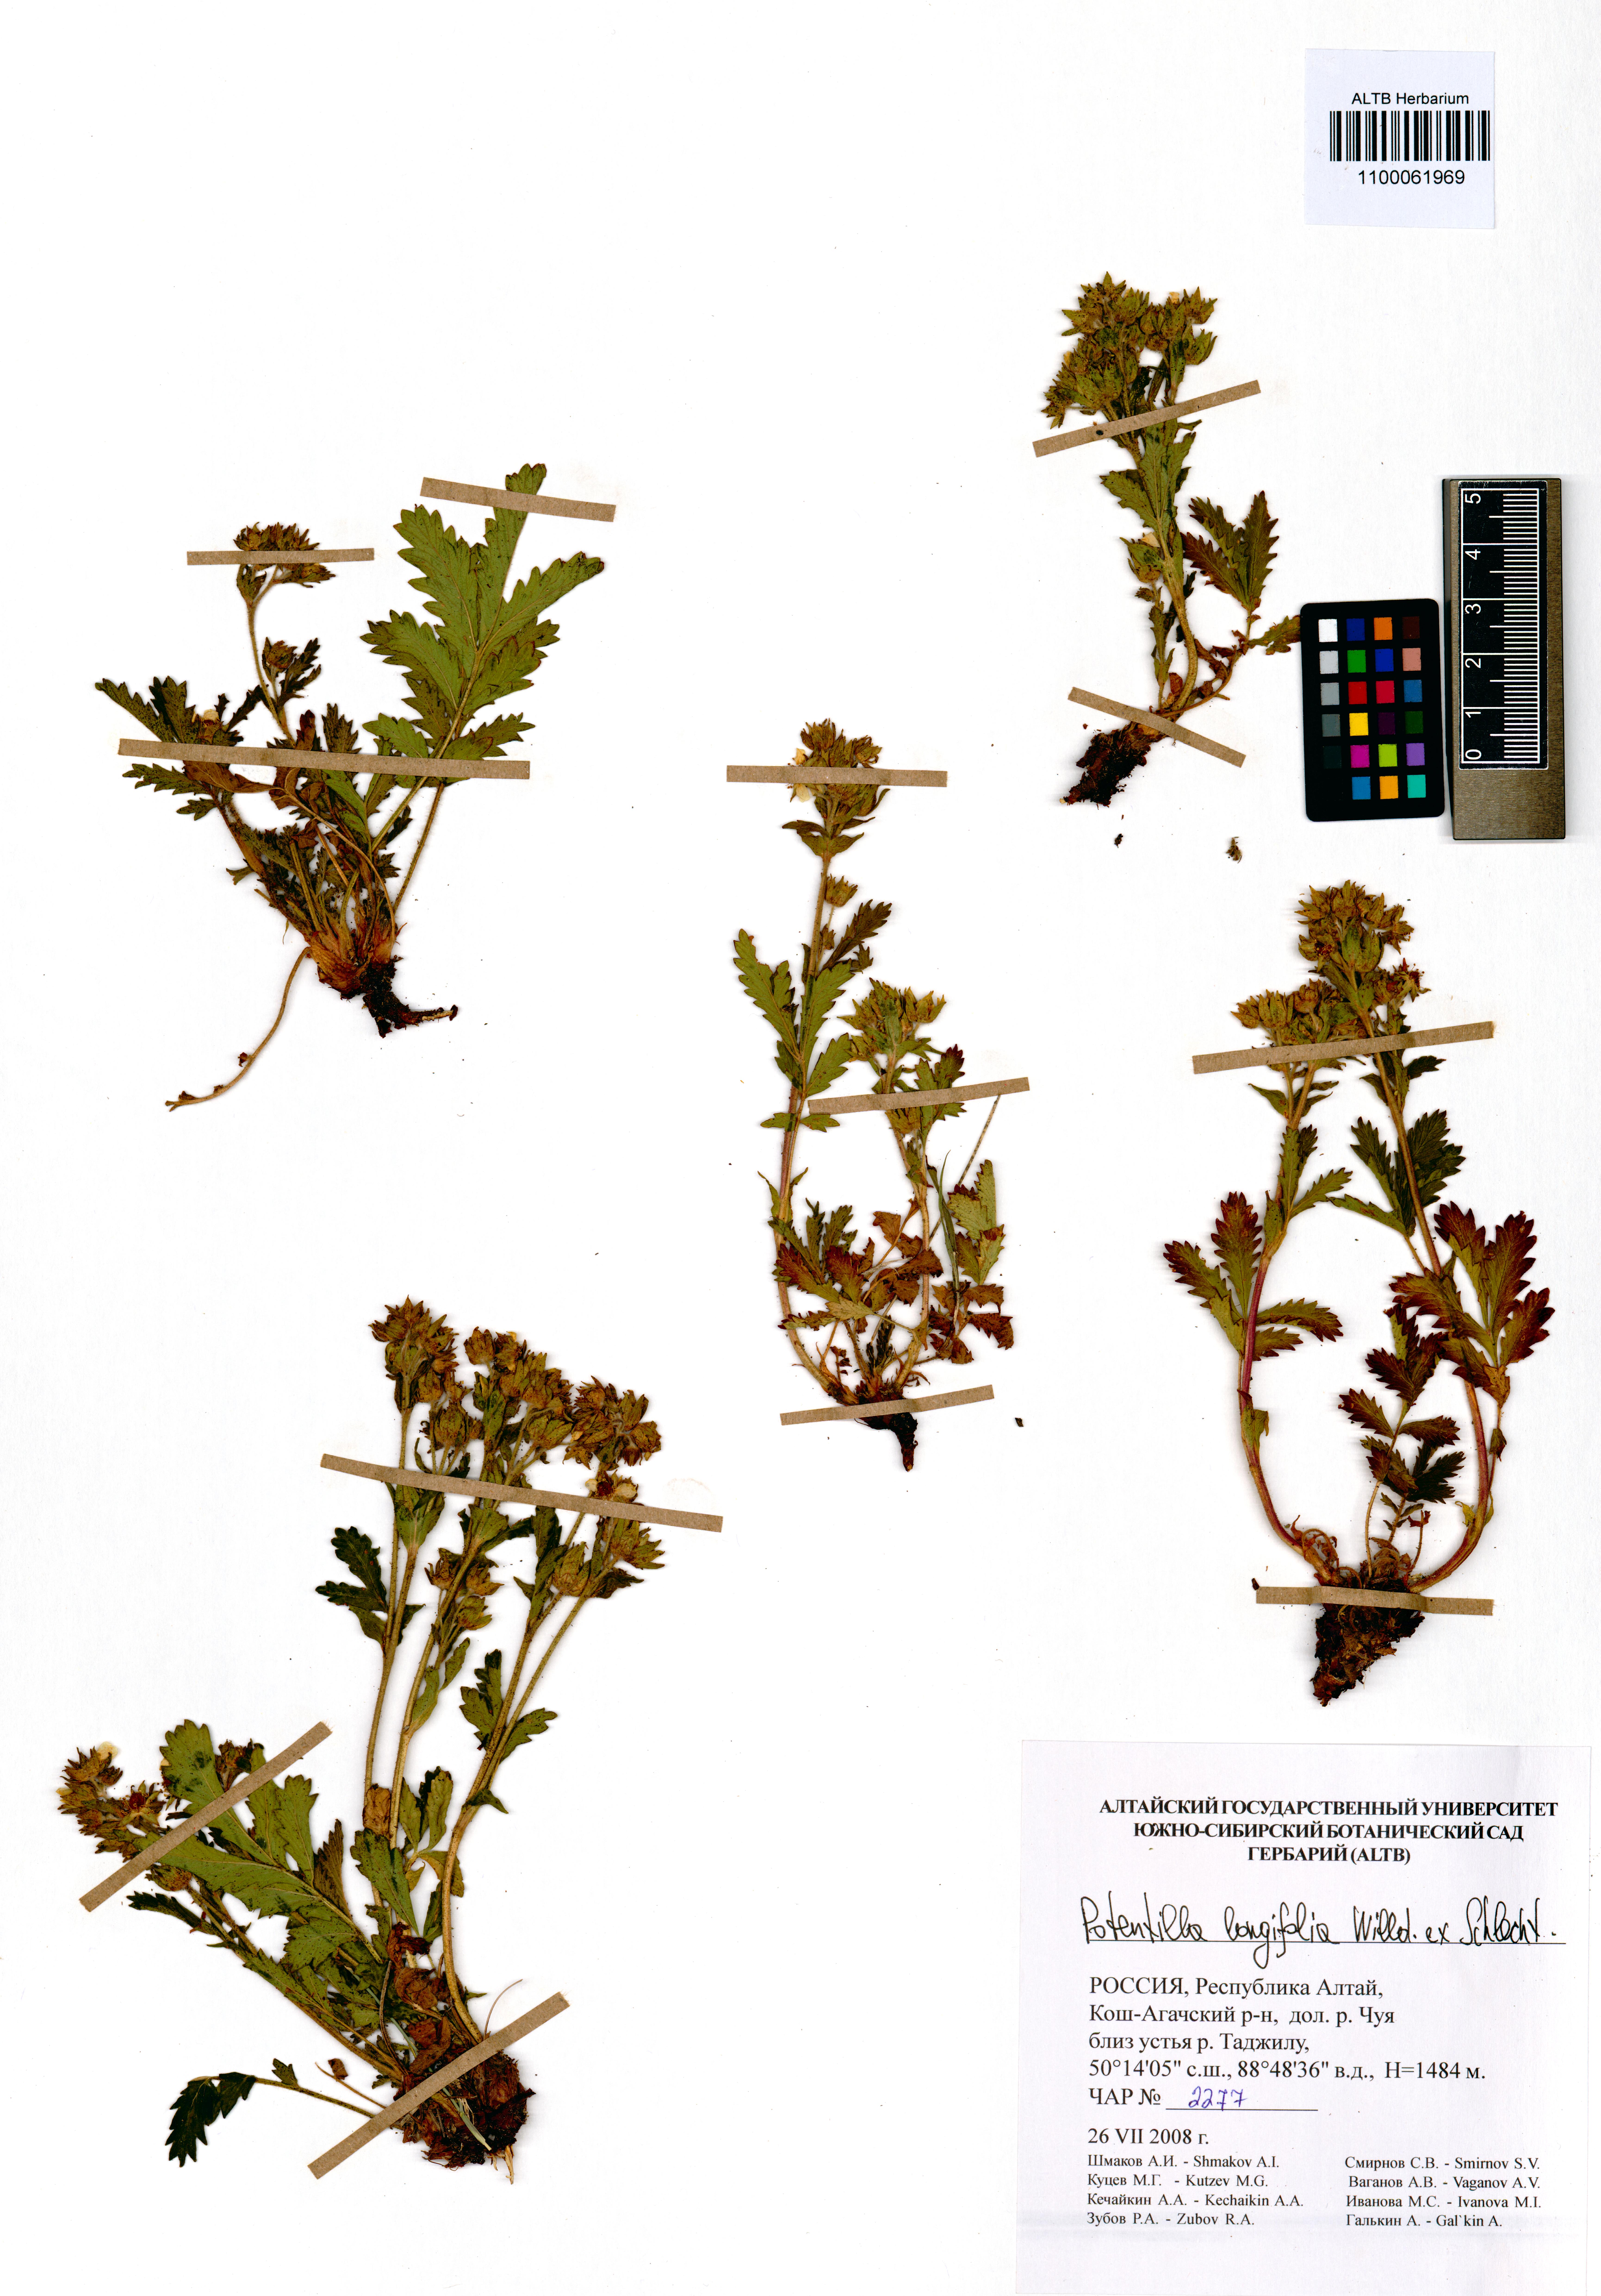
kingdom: Plantae
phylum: Tracheophyta
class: Magnoliopsida
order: Rosales
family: Rosaceae
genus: Potentilla
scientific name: Potentilla longifolia
